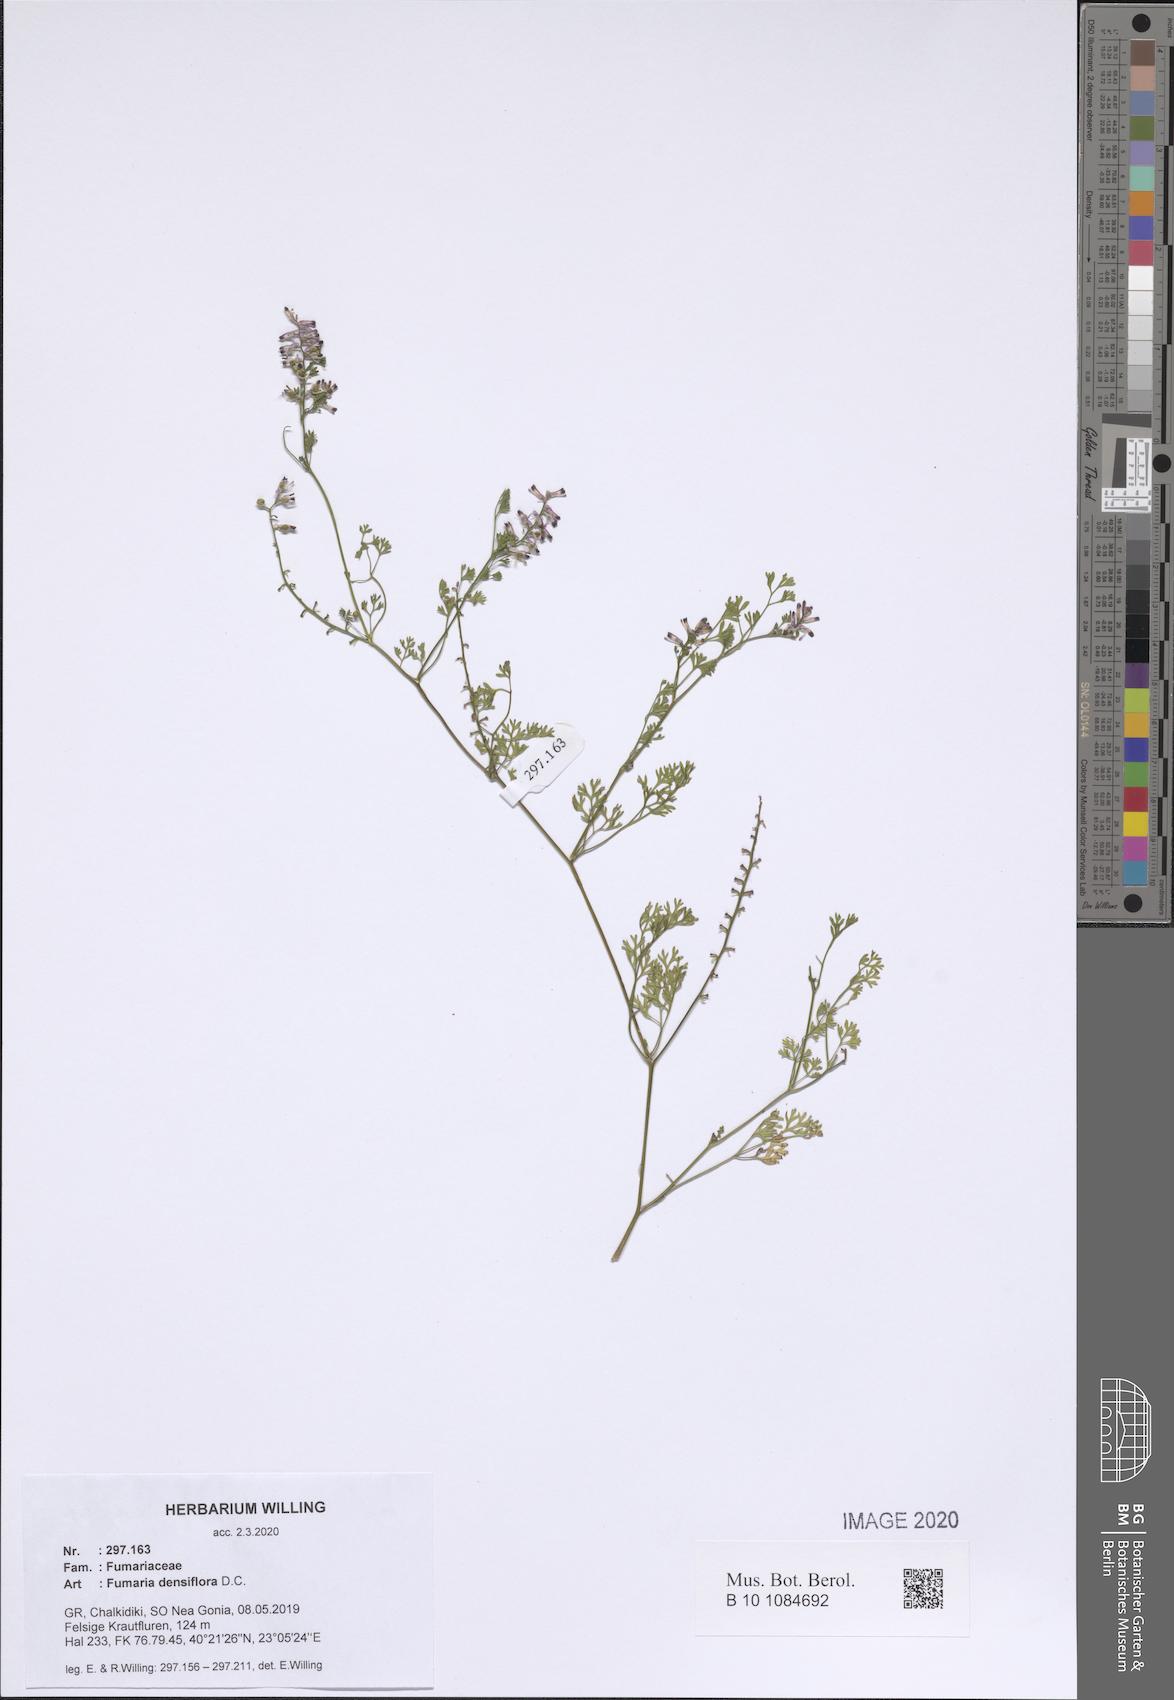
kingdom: Plantae
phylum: Tracheophyta
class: Magnoliopsida
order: Ranunculales
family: Papaveraceae
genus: Fumaria
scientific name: Fumaria densiflora
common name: Dense-flowered fumitory
